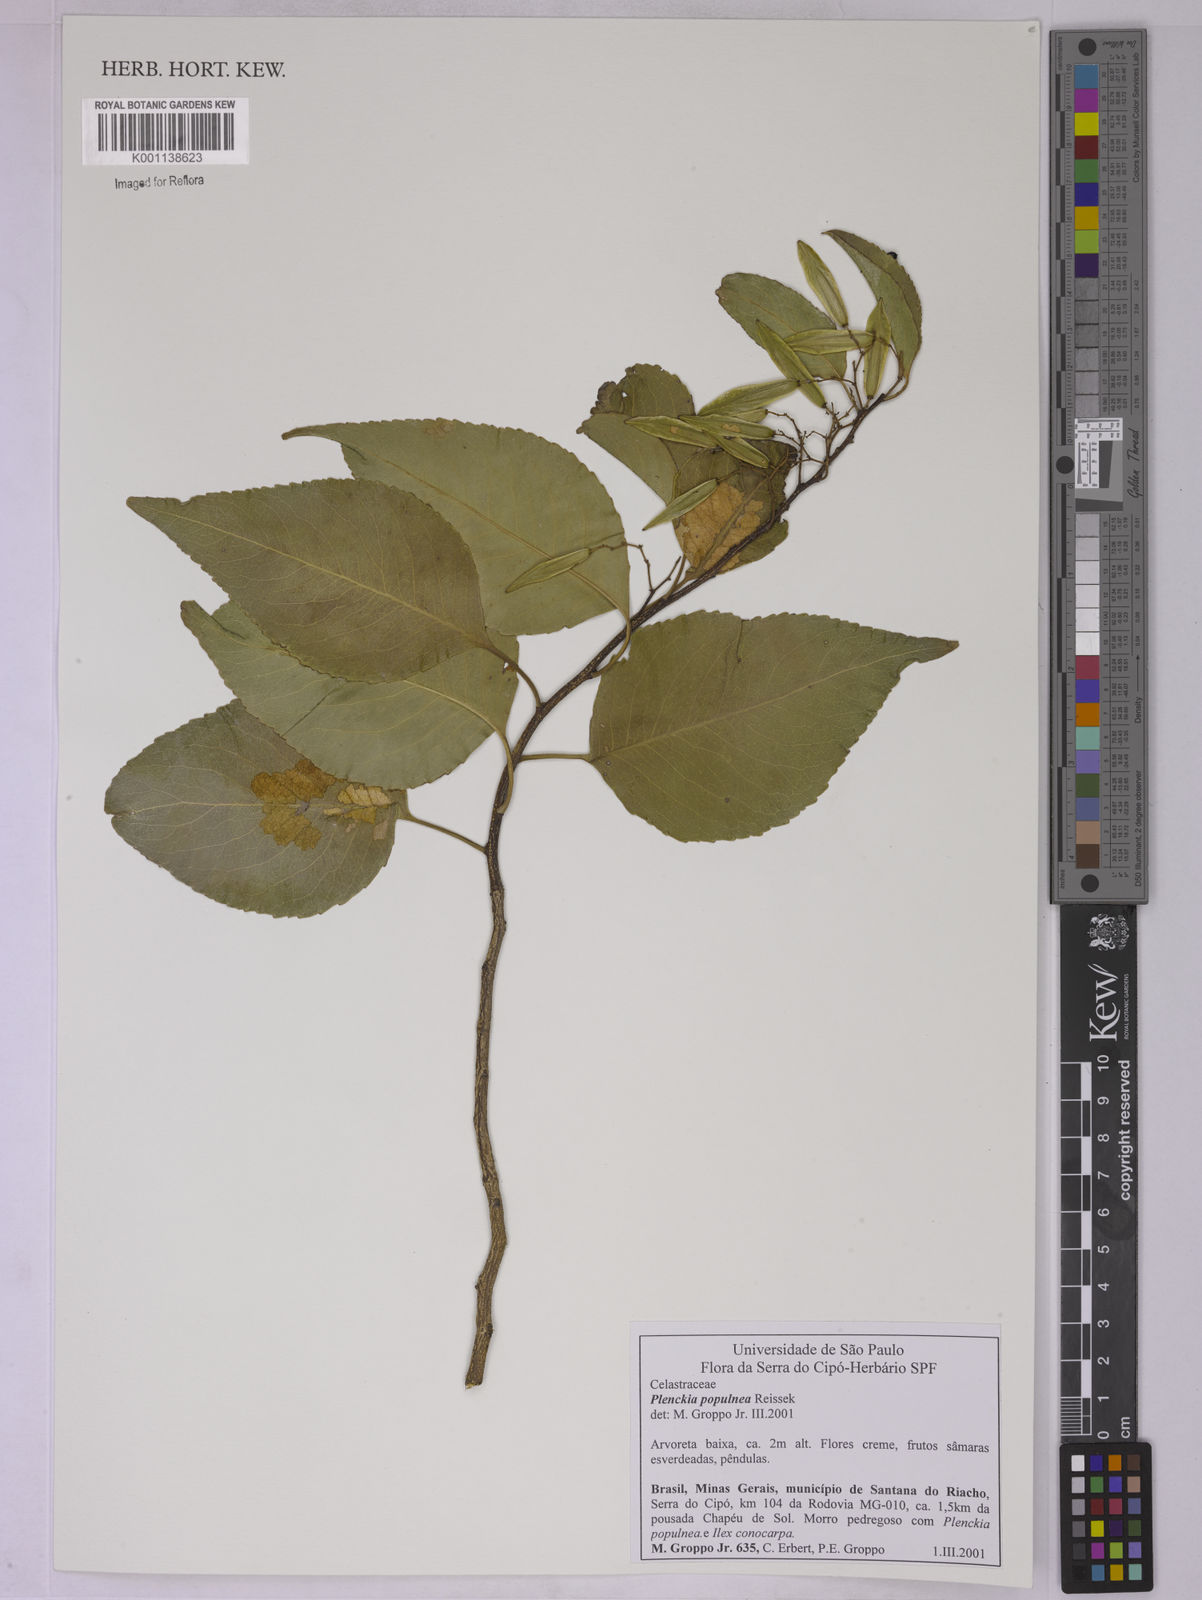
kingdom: Plantae
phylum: Tracheophyta
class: Magnoliopsida
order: Celastrales
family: Celastraceae
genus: Plenckia
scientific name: Plenckia populnea
